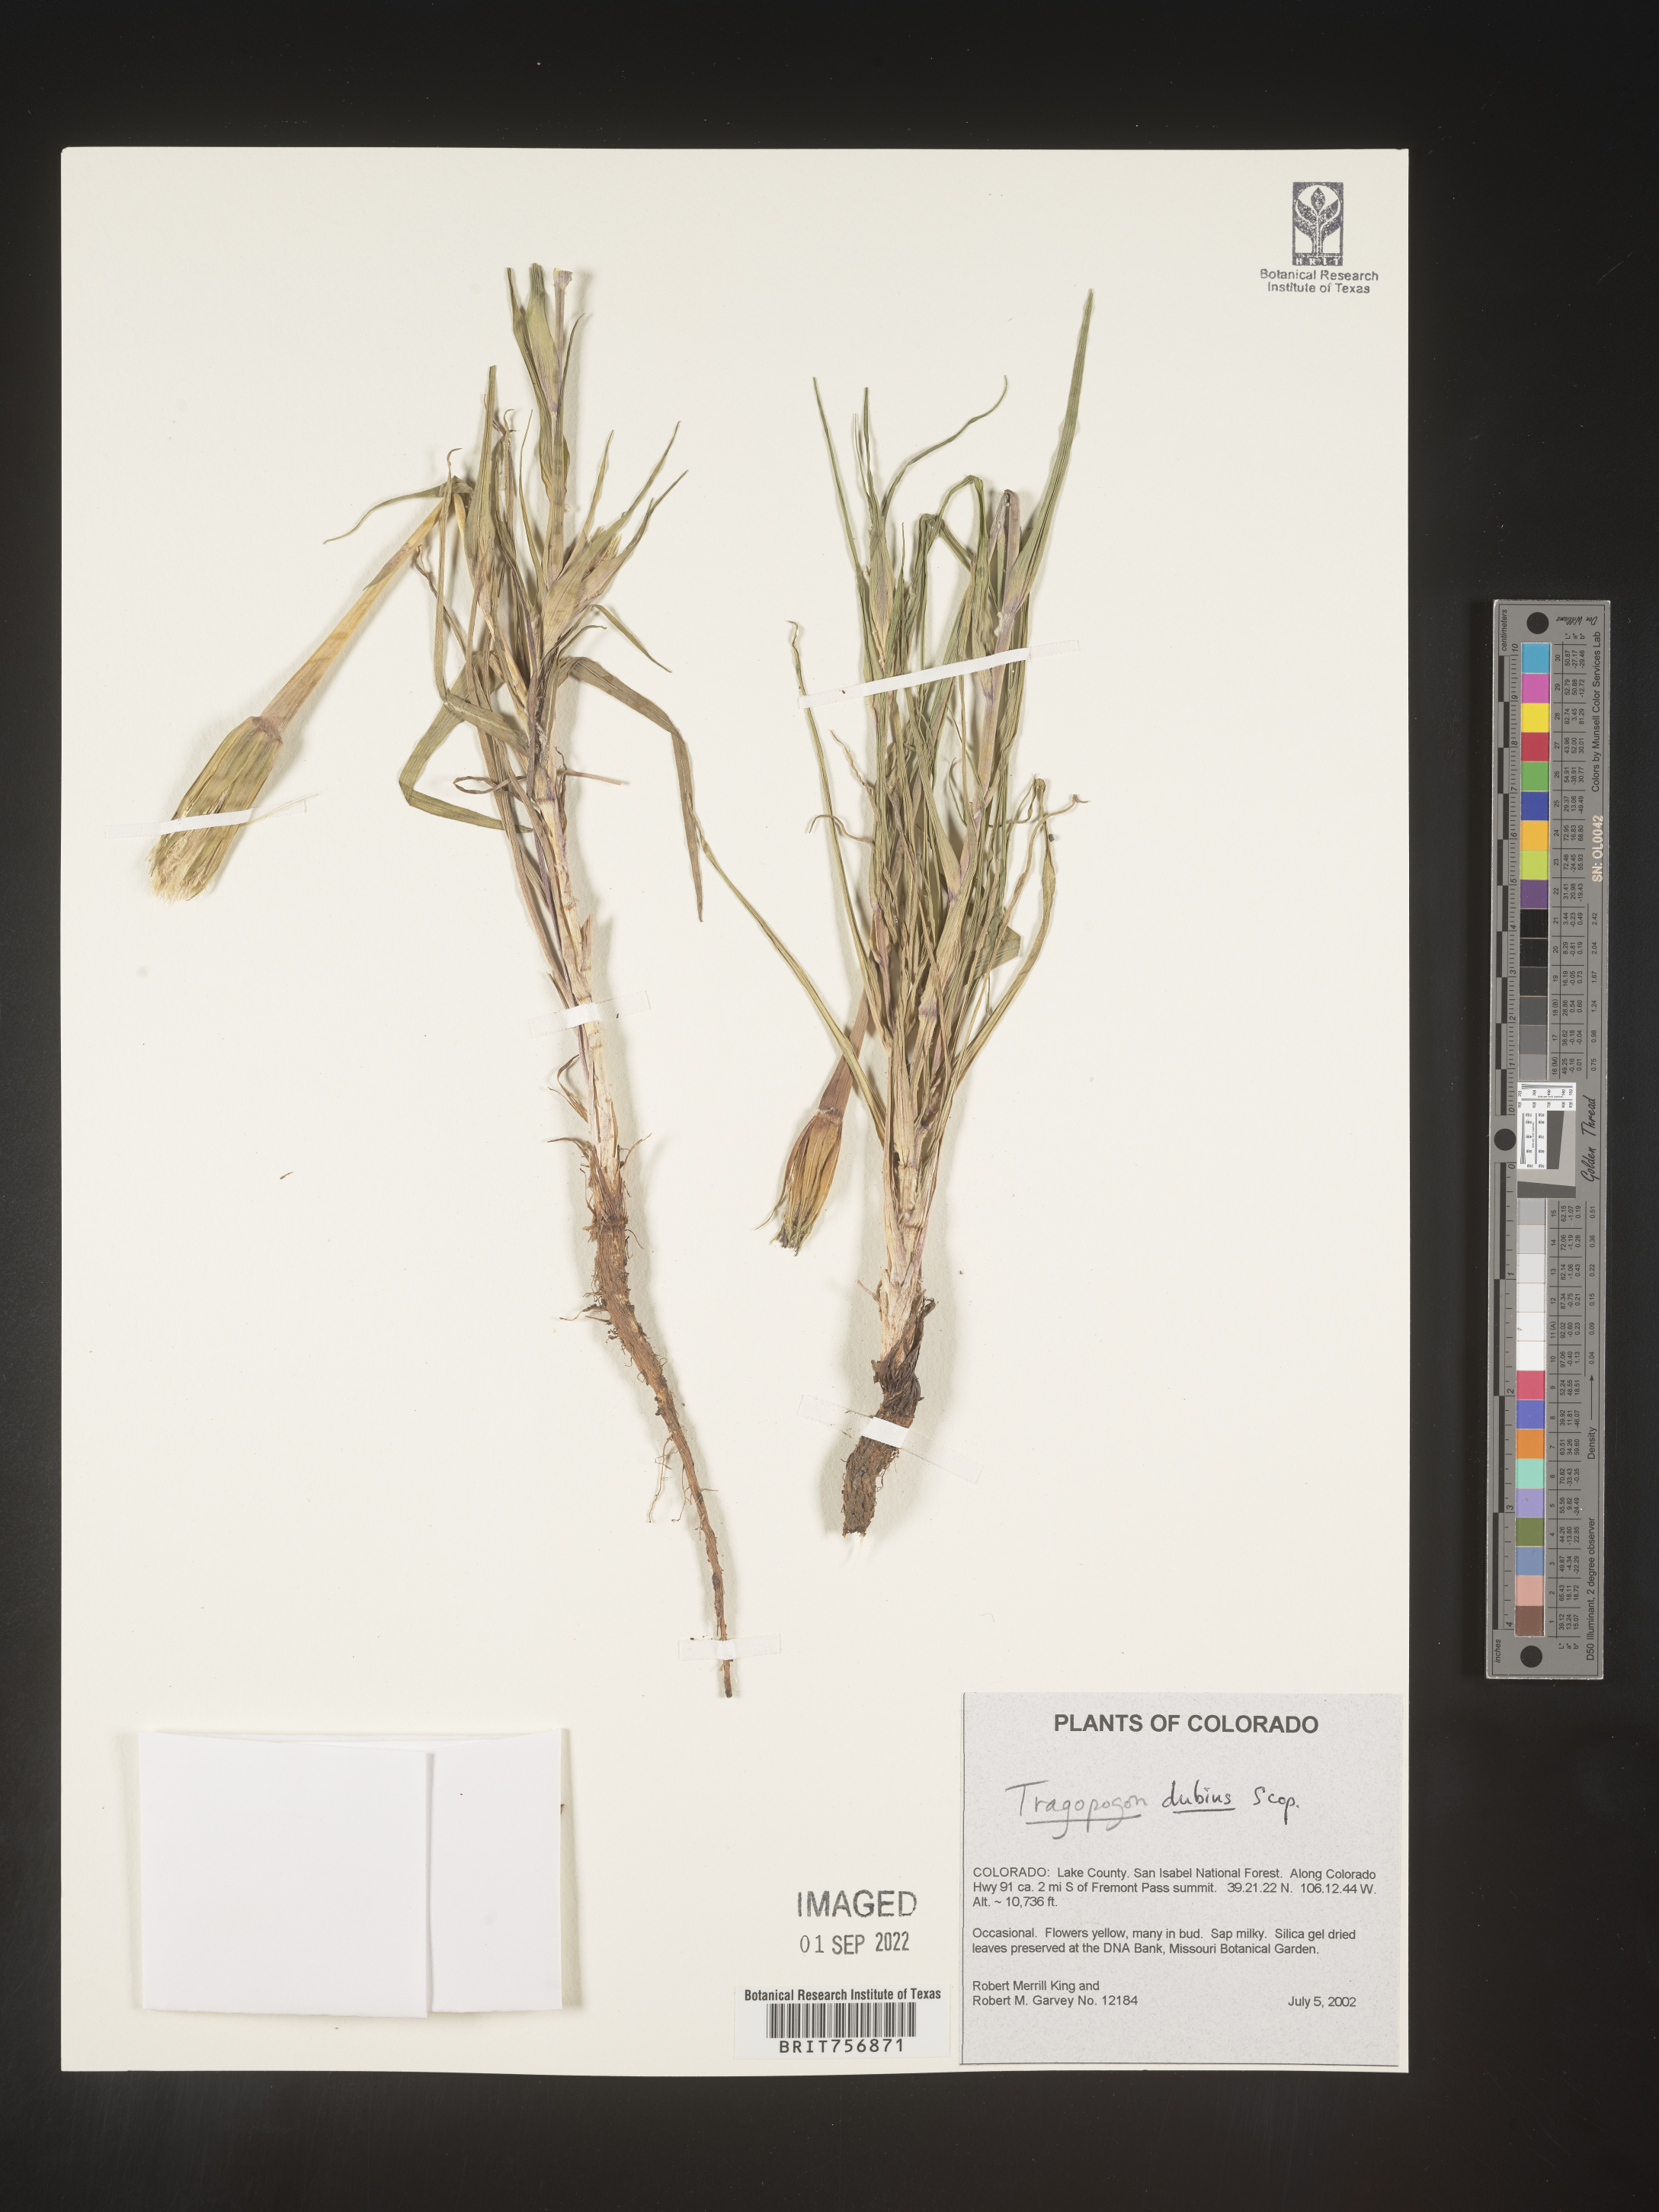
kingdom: Plantae
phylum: Tracheophyta
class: Magnoliopsida
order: Asterales
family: Asteraceae
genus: Tragopogon
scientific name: Tragopogon dubius
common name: Yellow salsify
